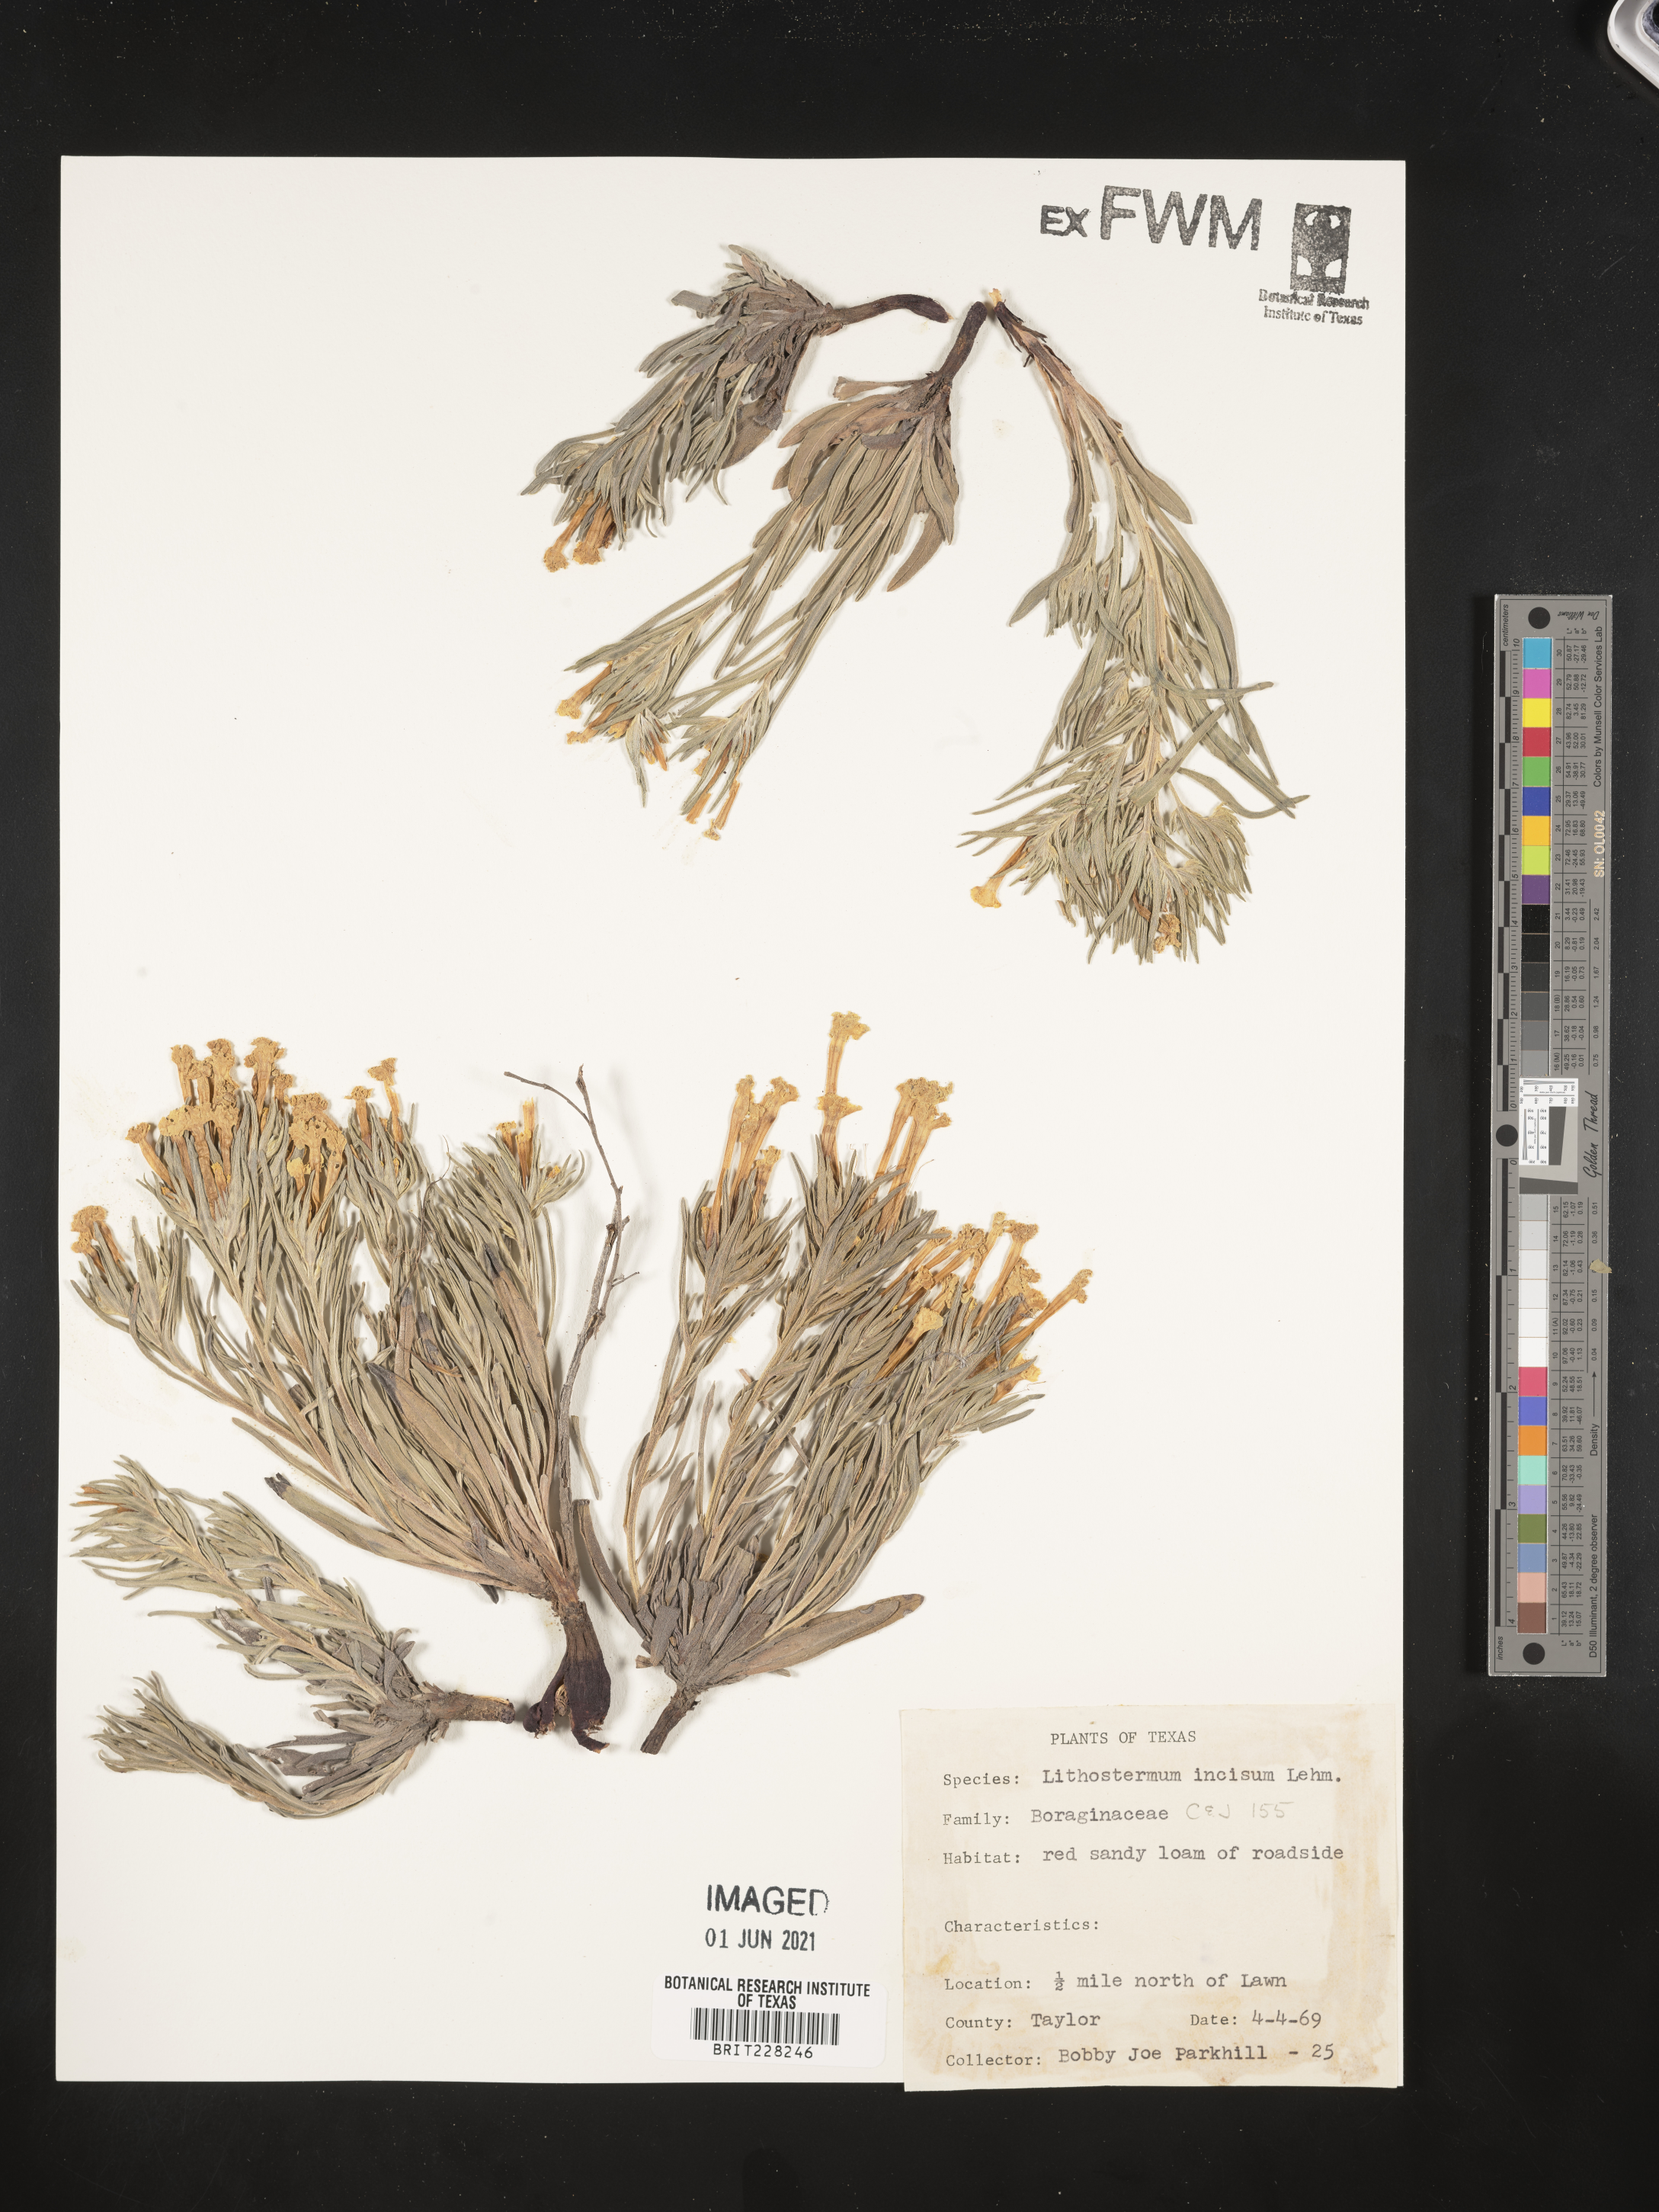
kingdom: Plantae
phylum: Tracheophyta
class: Magnoliopsida
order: Boraginales
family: Boraginaceae
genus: Lithospermum
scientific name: Lithospermum incisum
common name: Fringed gromwell
